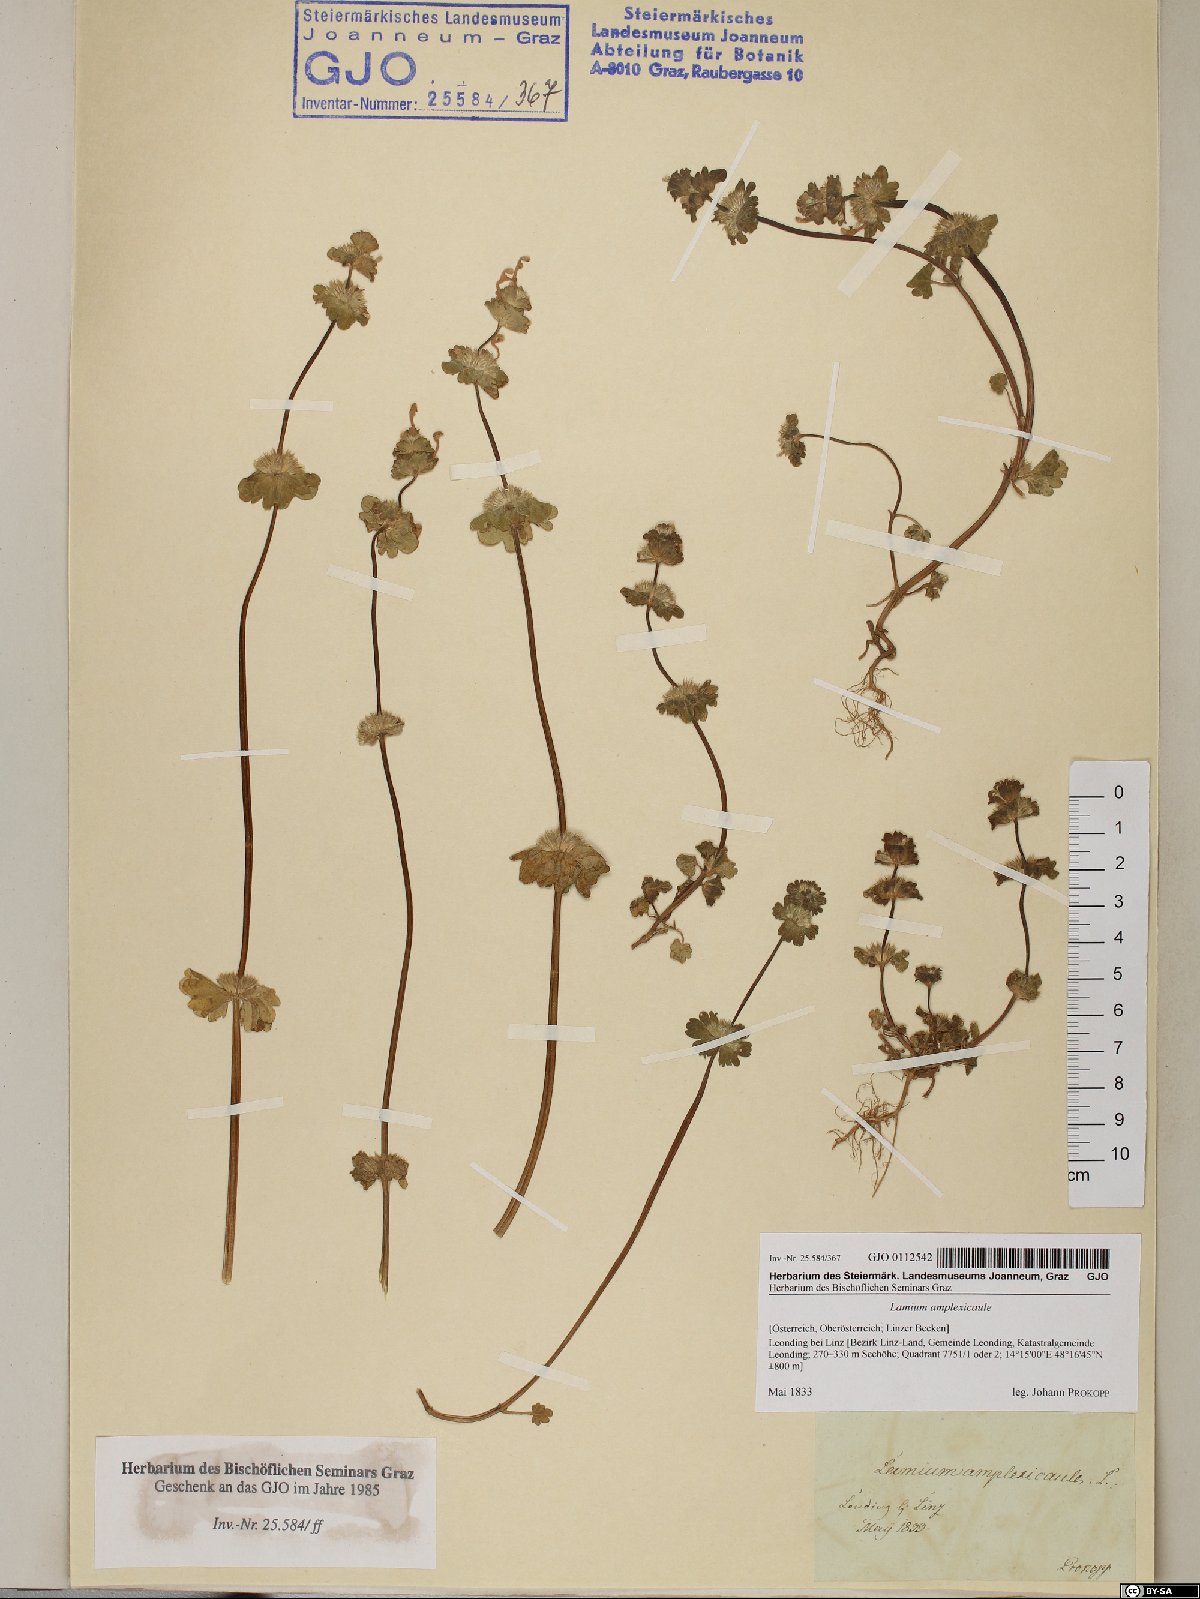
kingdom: Plantae
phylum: Tracheophyta
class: Magnoliopsida
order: Lamiales
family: Lamiaceae
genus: Lamium
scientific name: Lamium amplexicaule
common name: Henbit dead-nettle
